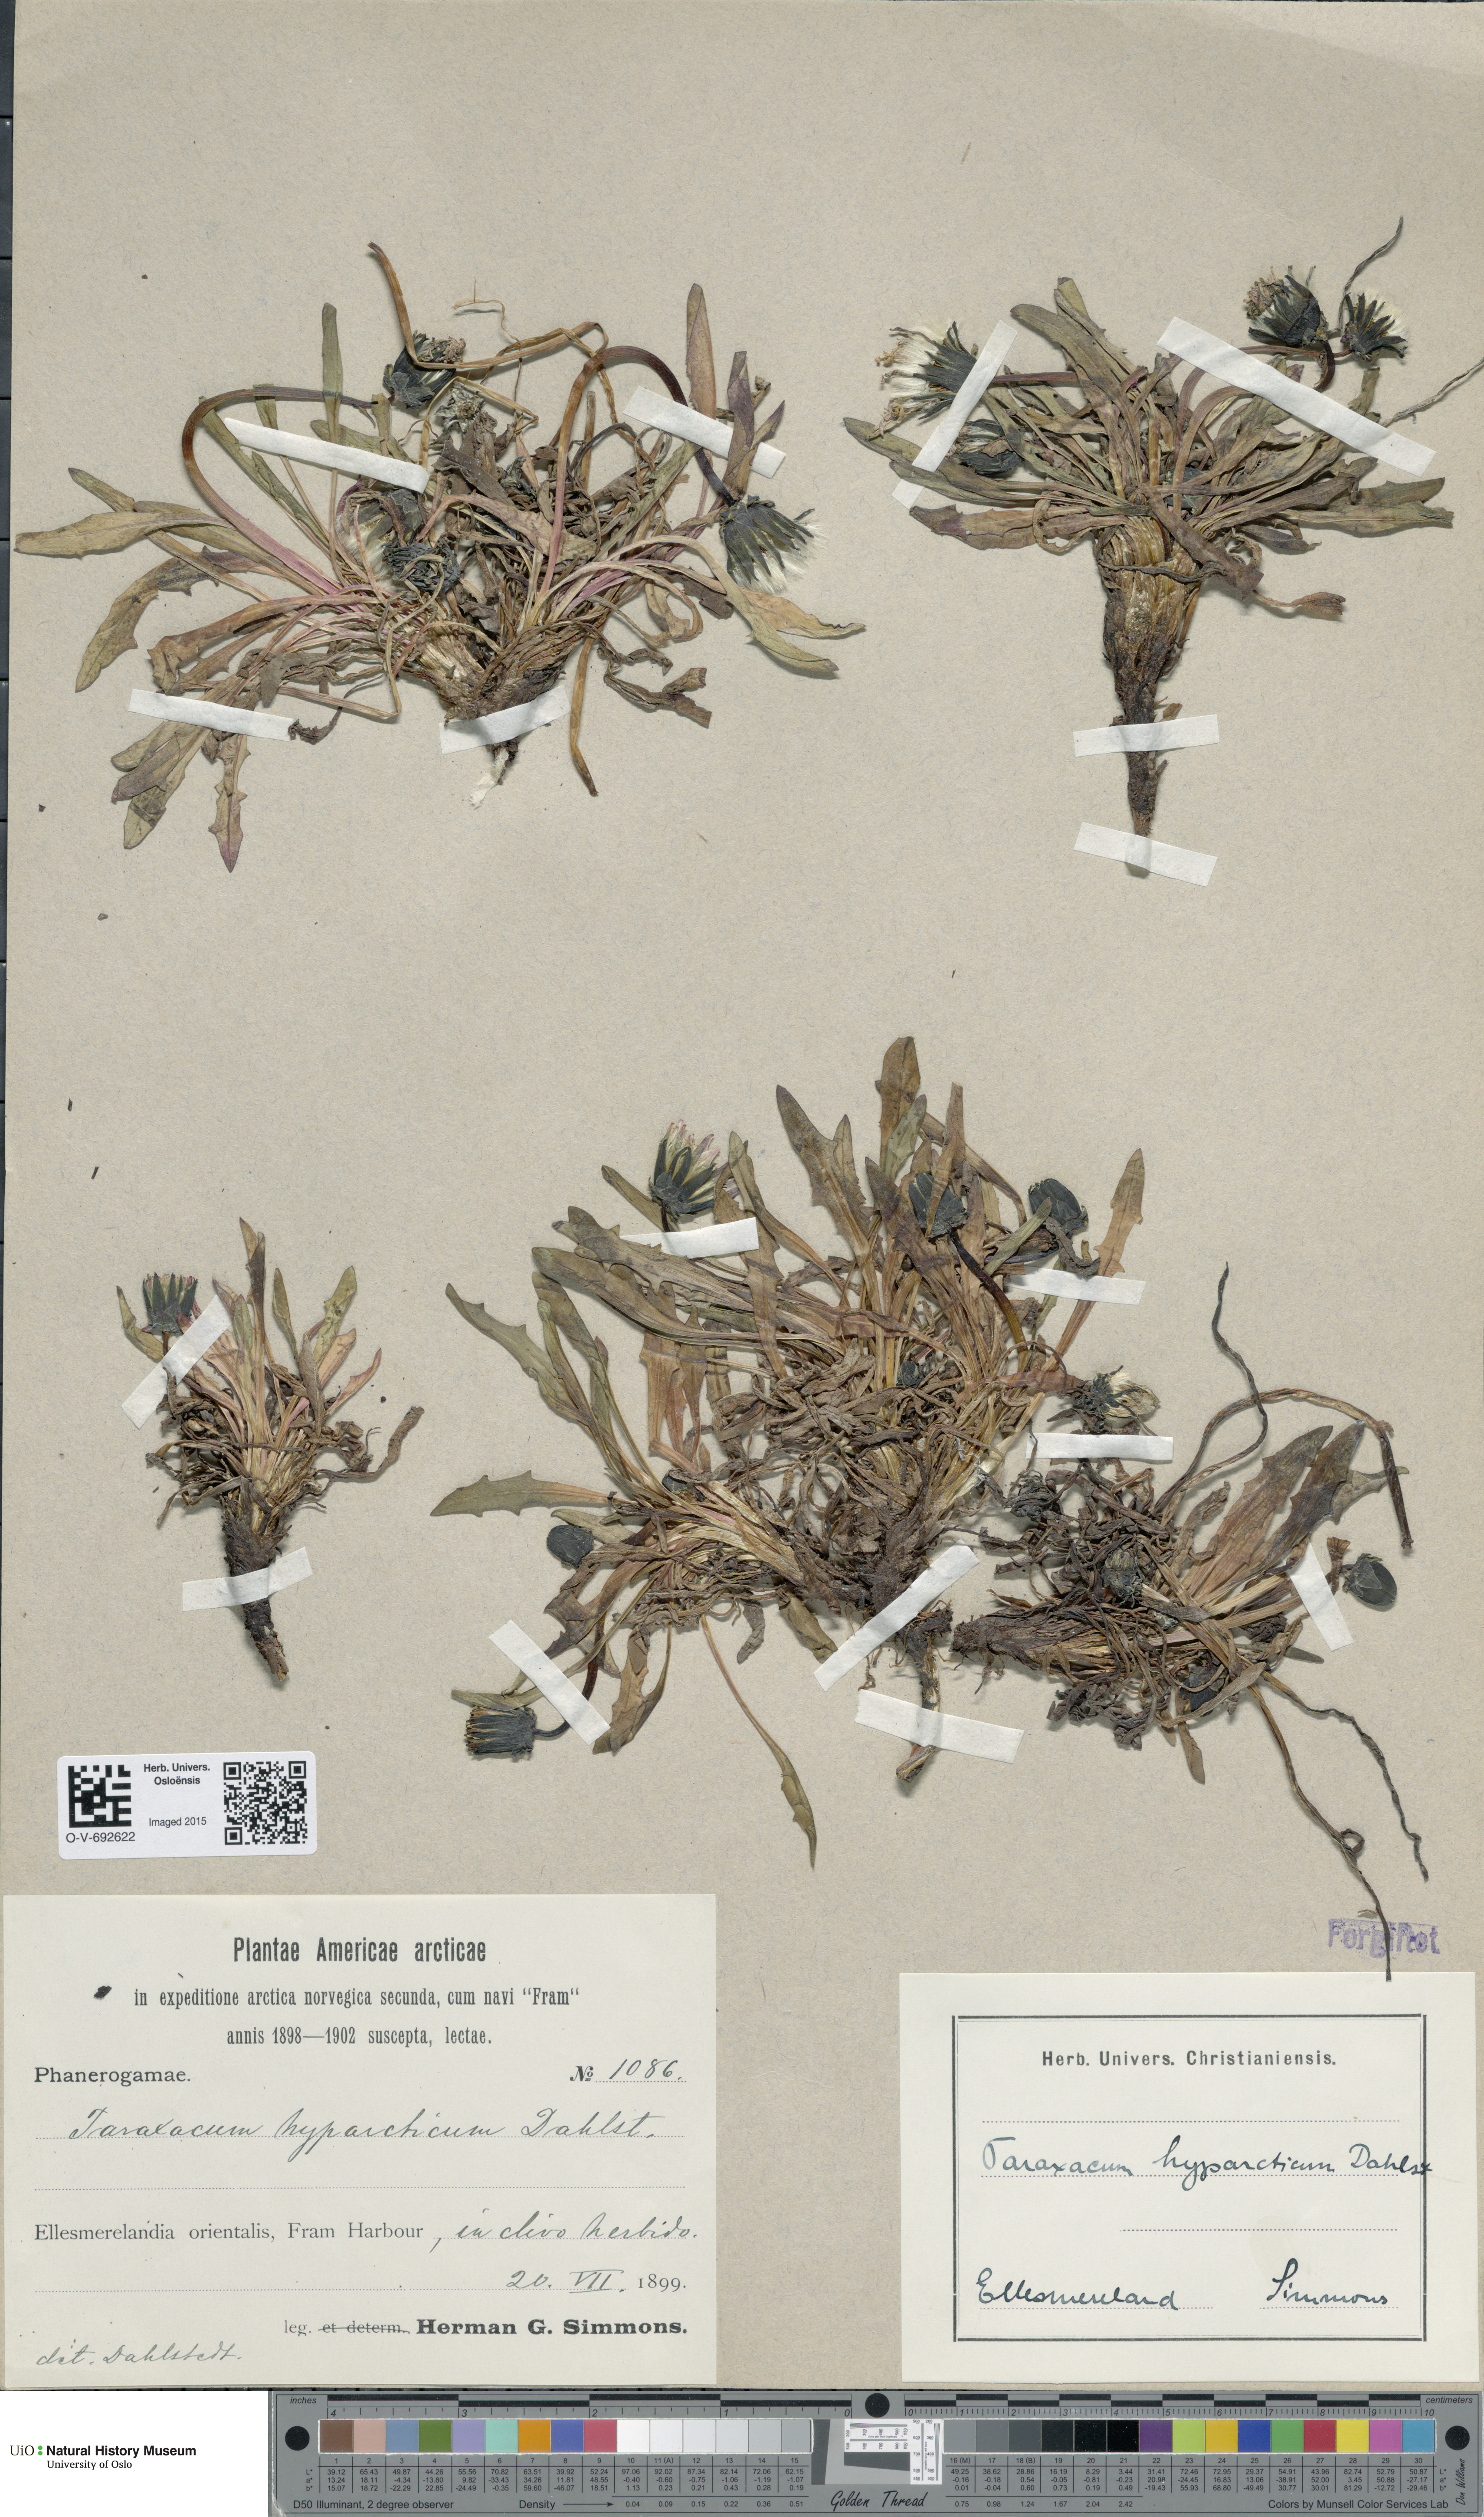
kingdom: Plantae
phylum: Tracheophyta
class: Magnoliopsida
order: Asterales
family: Asteraceae
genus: Taraxacum
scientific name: Taraxacum hyparcticum
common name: High arctic dandelion
